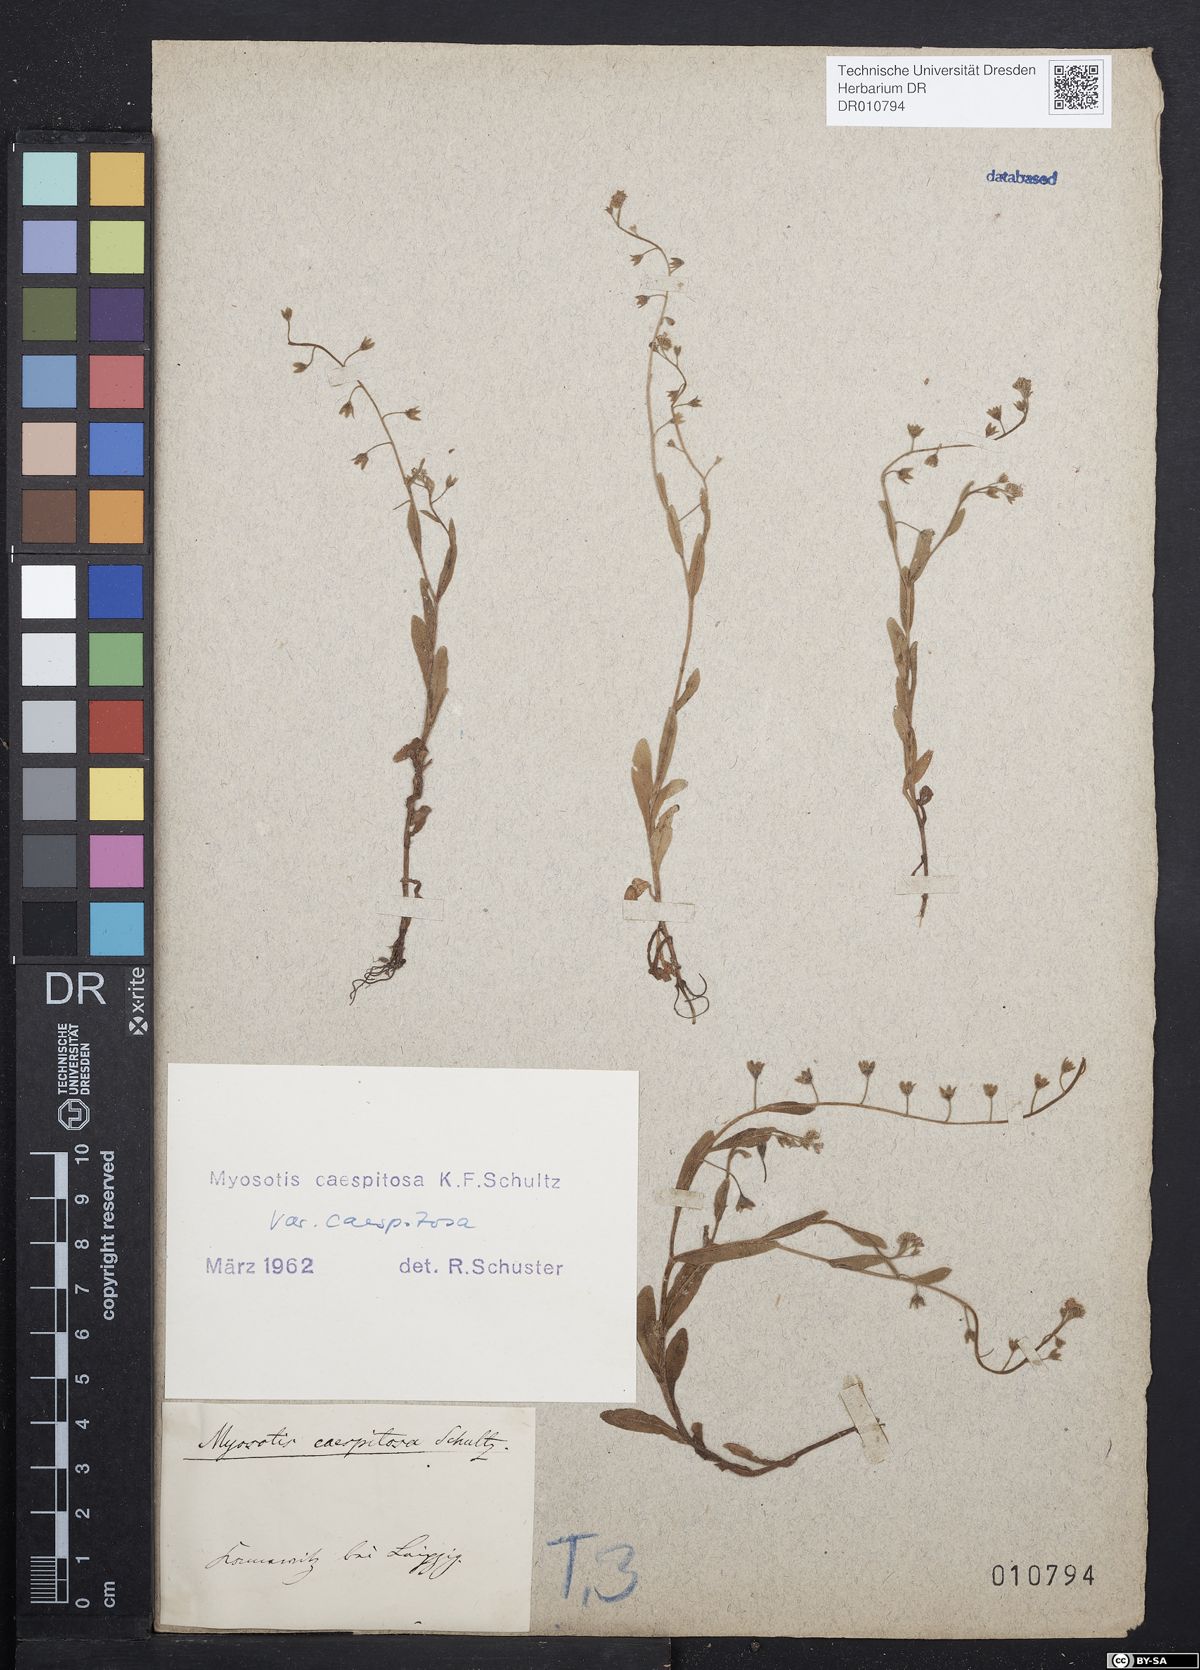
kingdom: Plantae
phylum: Tracheophyta
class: Magnoliopsida
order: Boraginales
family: Boraginaceae
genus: Myosotis
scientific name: Myosotis laxa
